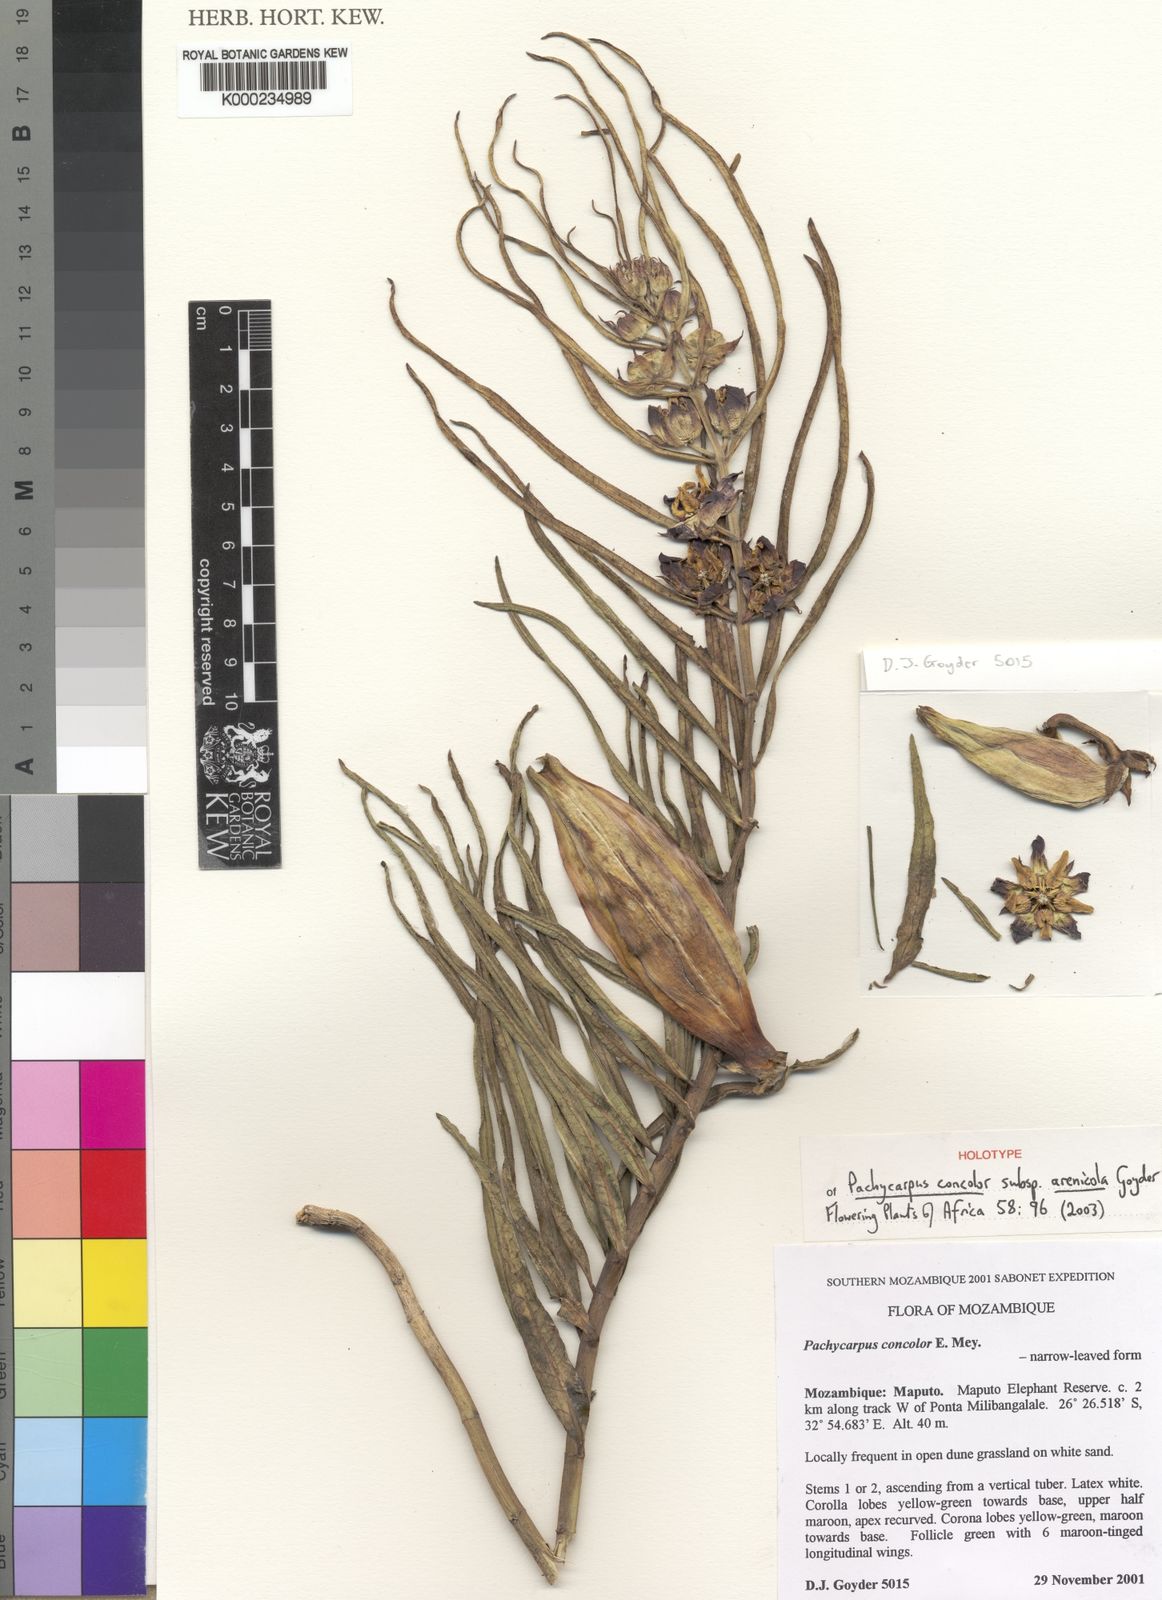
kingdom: Plantae
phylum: Tracheophyta
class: Magnoliopsida
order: Gentianales
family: Apocynaceae
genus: Pachycarpus
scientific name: Pachycarpus concolor
